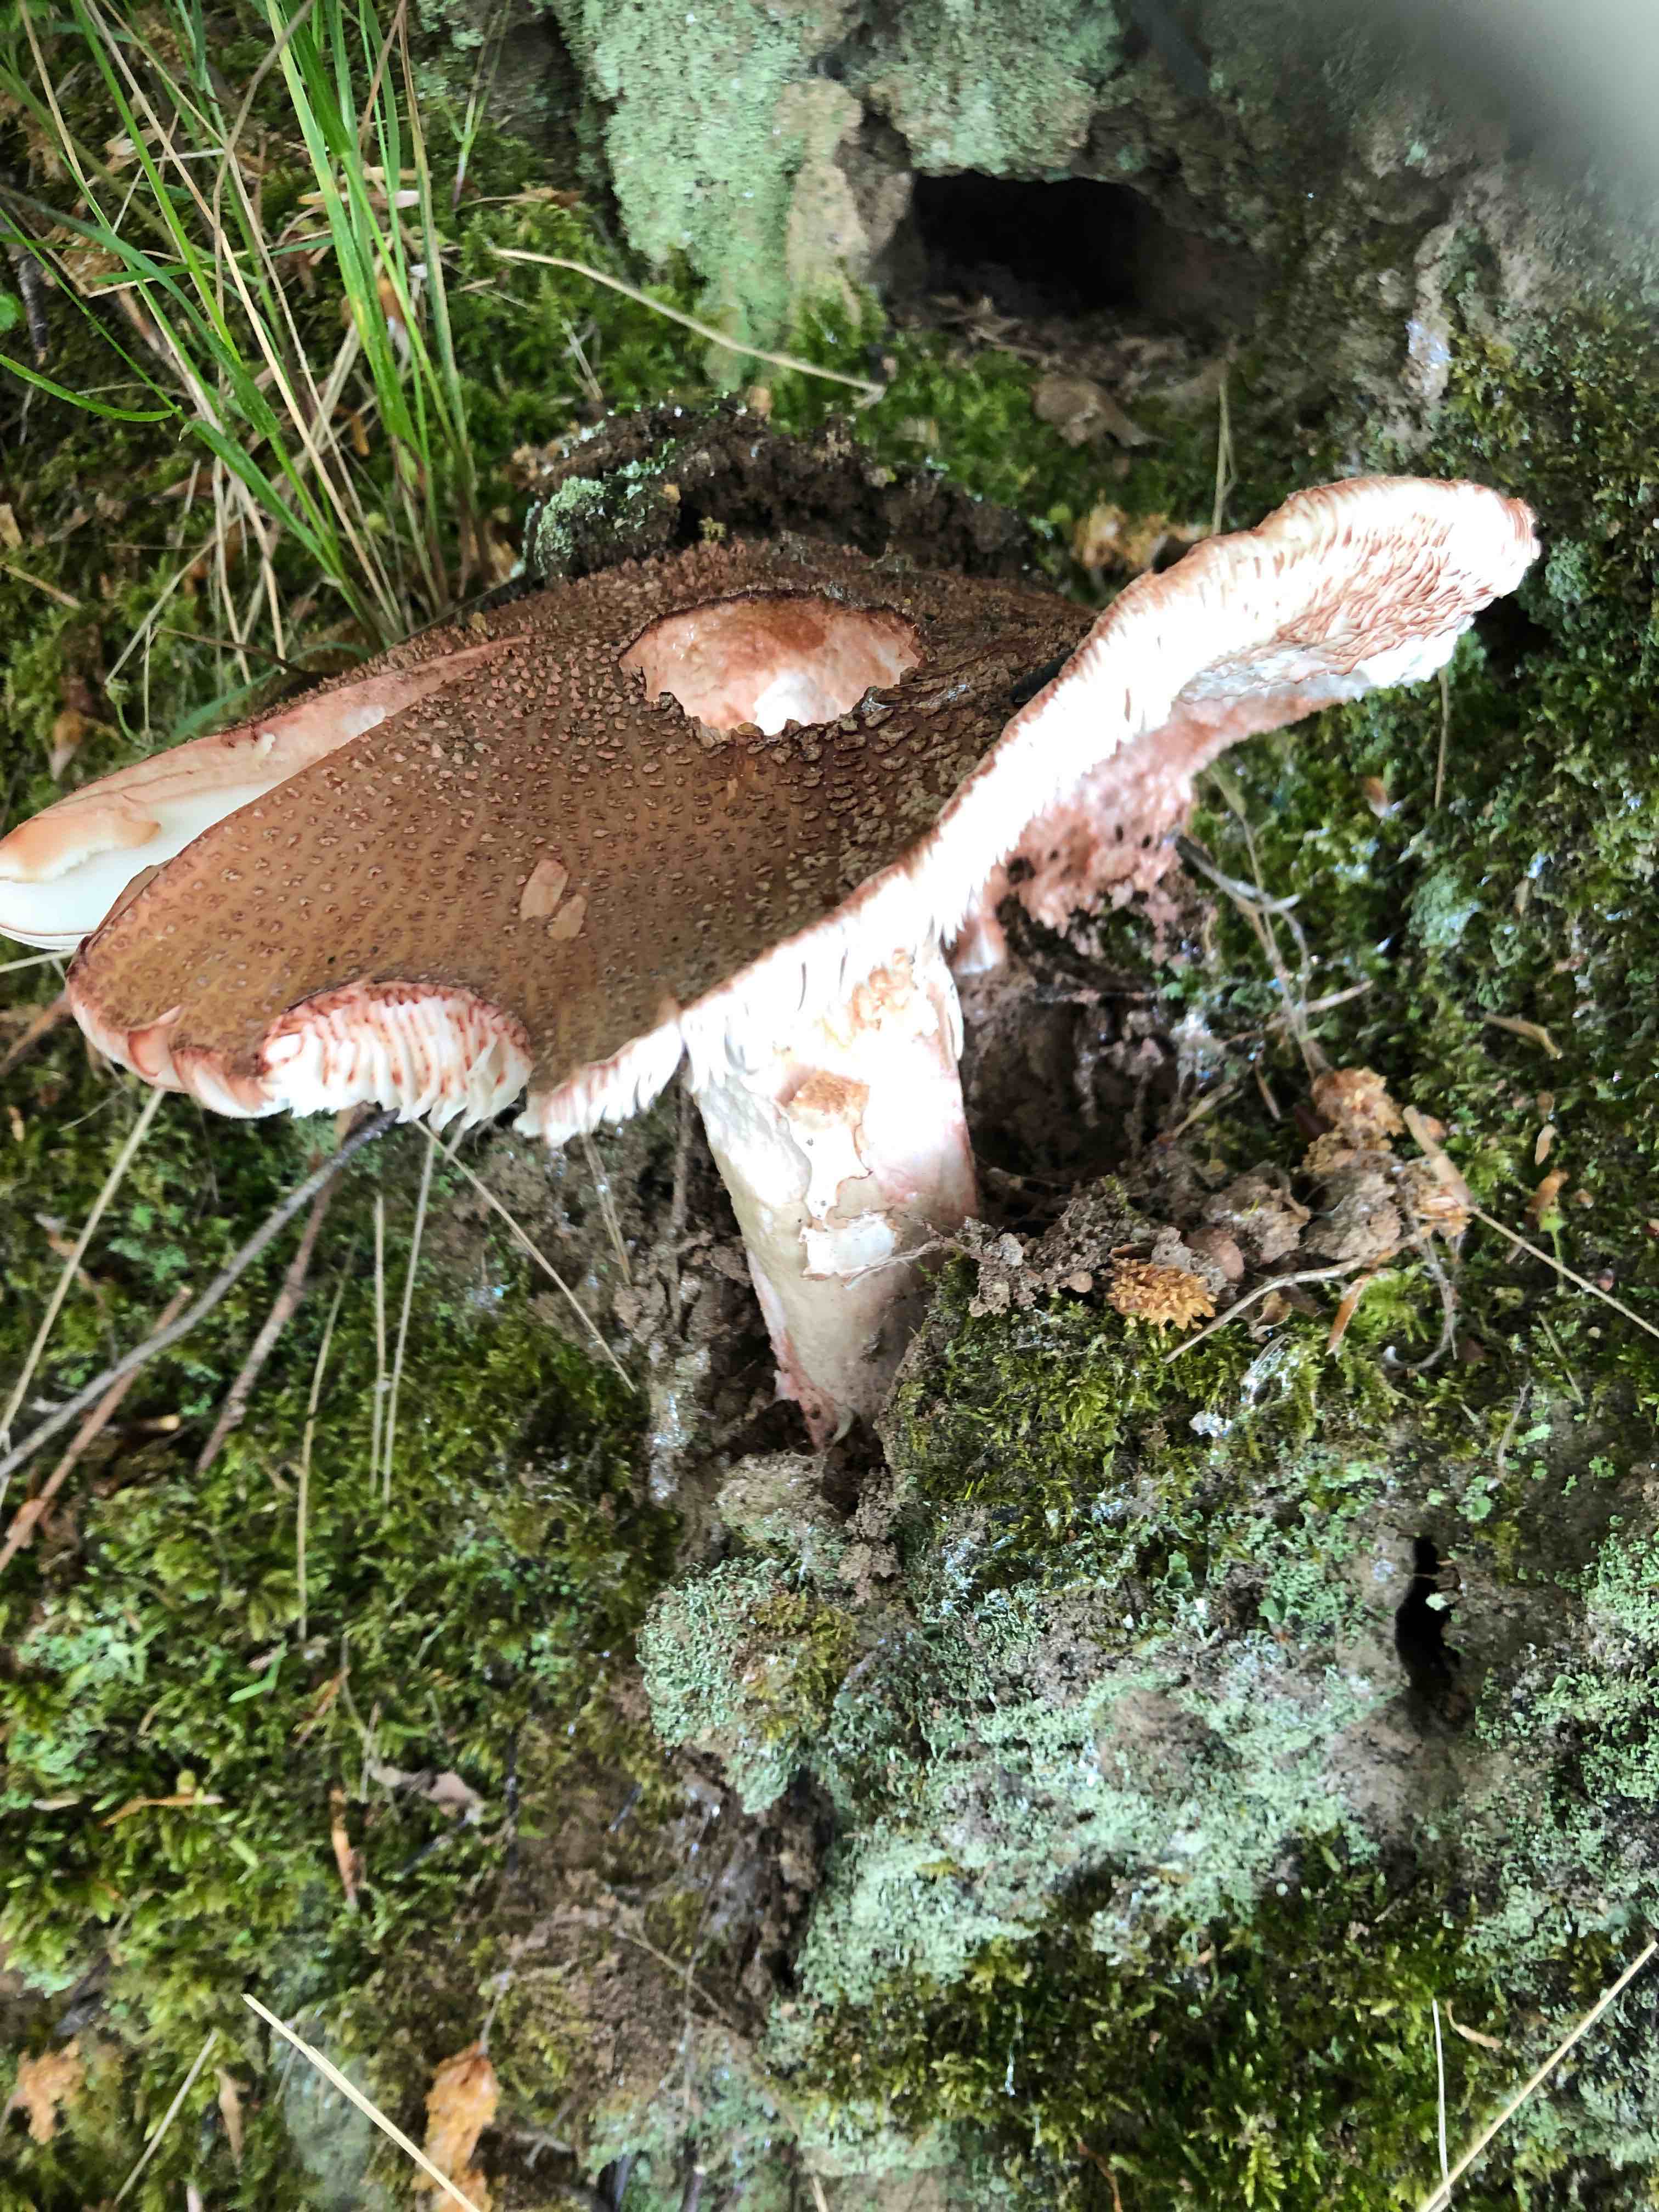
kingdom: Fungi
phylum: Basidiomycota
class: Agaricomycetes
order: Agaricales
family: Amanitaceae
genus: Amanita
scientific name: Amanita rubescens
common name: rødmende fluesvamp
